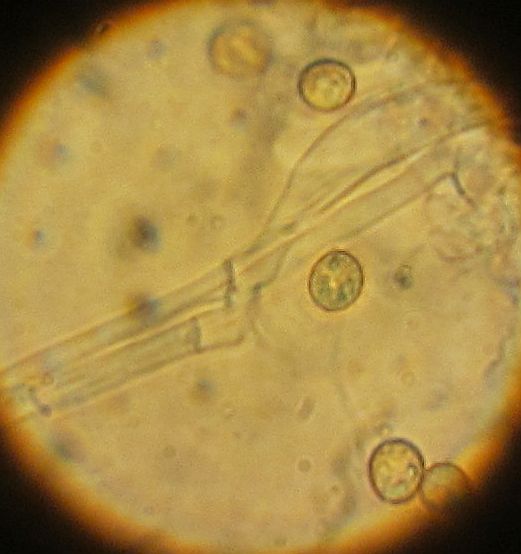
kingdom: Fungi
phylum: Basidiomycota
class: Agaricomycetes
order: Agaricales
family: Crepidotaceae
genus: Crepidotus
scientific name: Crepidotus cesatii
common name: almindelig muslingesvamp
